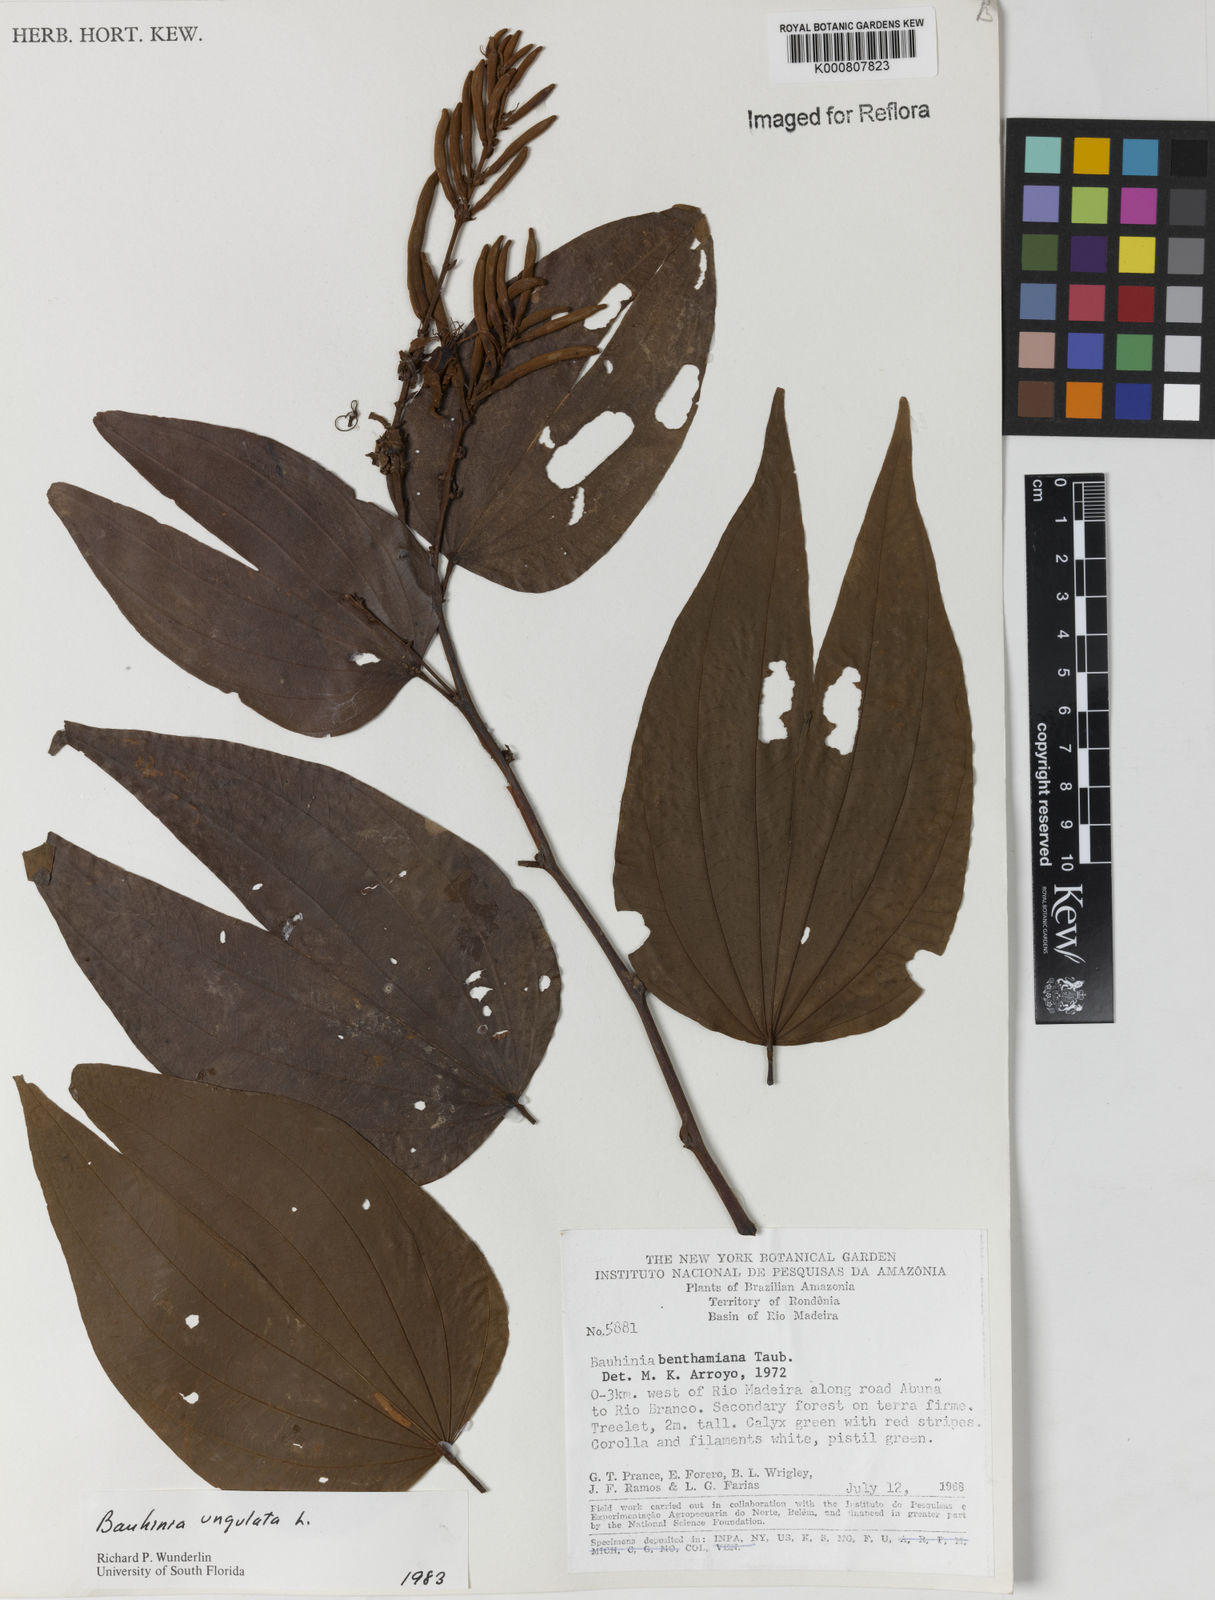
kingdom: Plantae
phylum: Tracheophyta
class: Magnoliopsida
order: Fabales
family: Fabaceae
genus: Bauhinia
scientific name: Bauhinia ungulata
